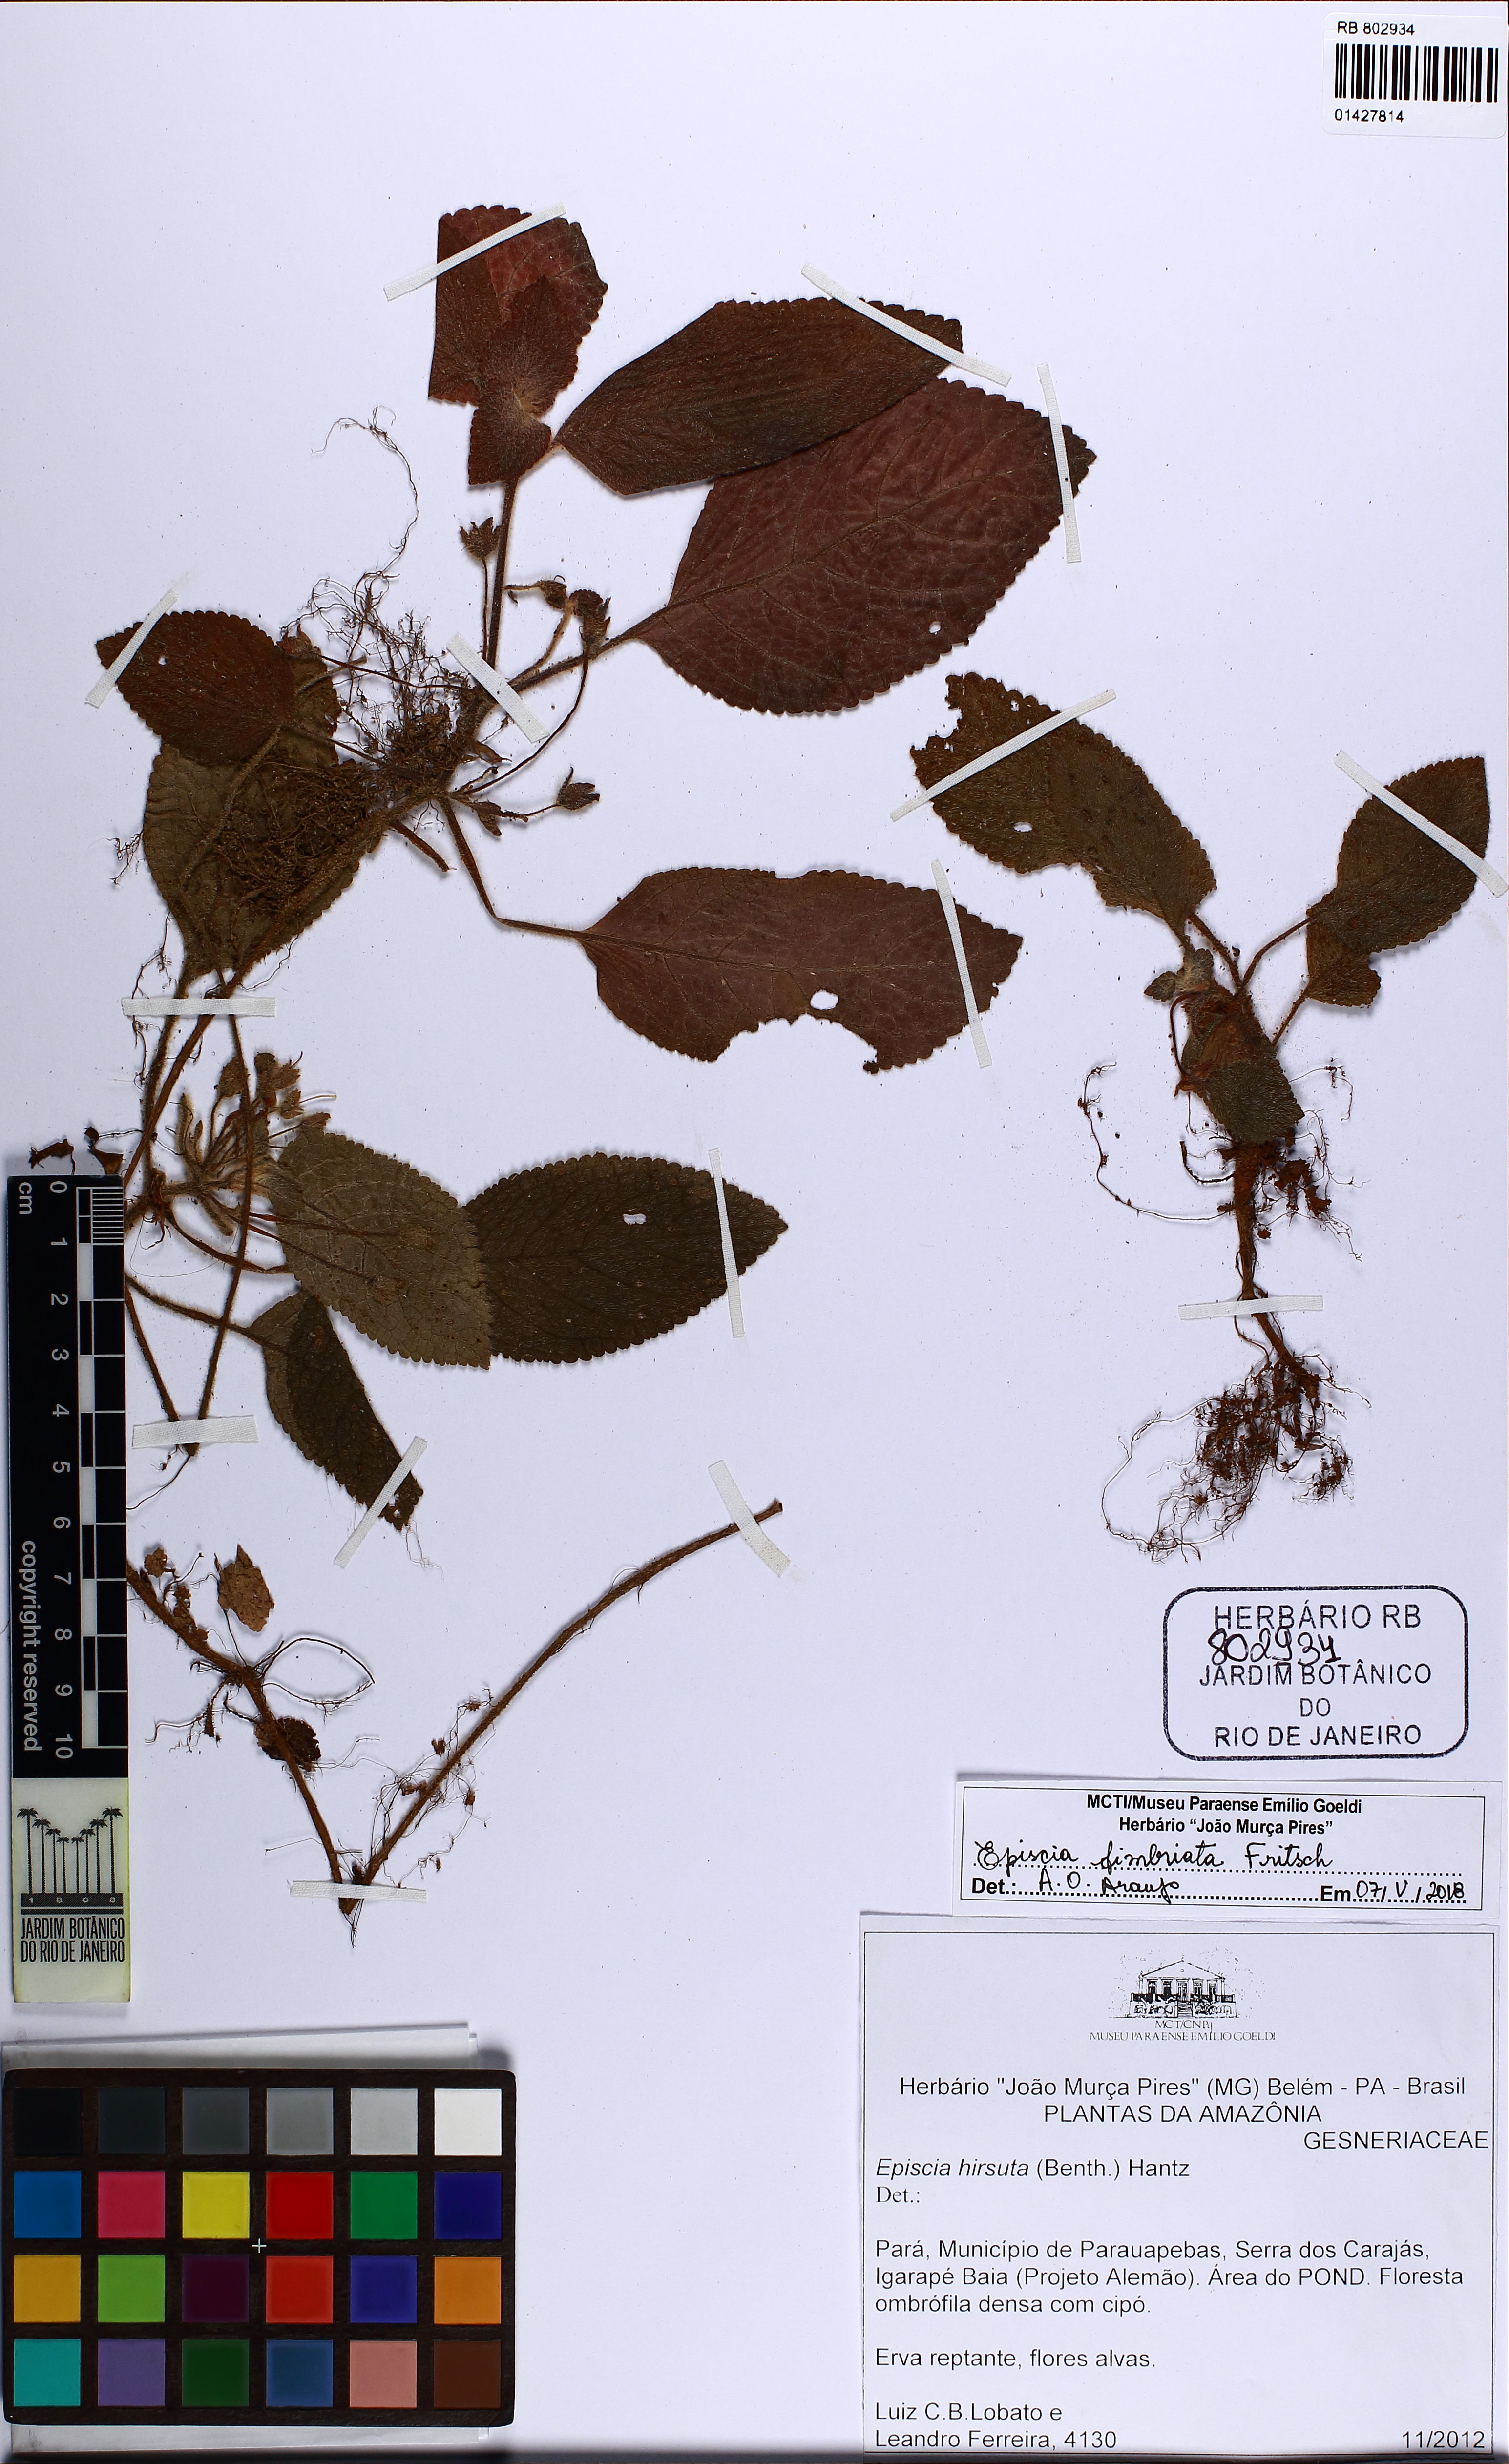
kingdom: Plantae
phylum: Tracheophyta
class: Magnoliopsida
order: Lamiales
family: Gesneriaceae
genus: Episcia
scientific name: Episcia fimbriata
